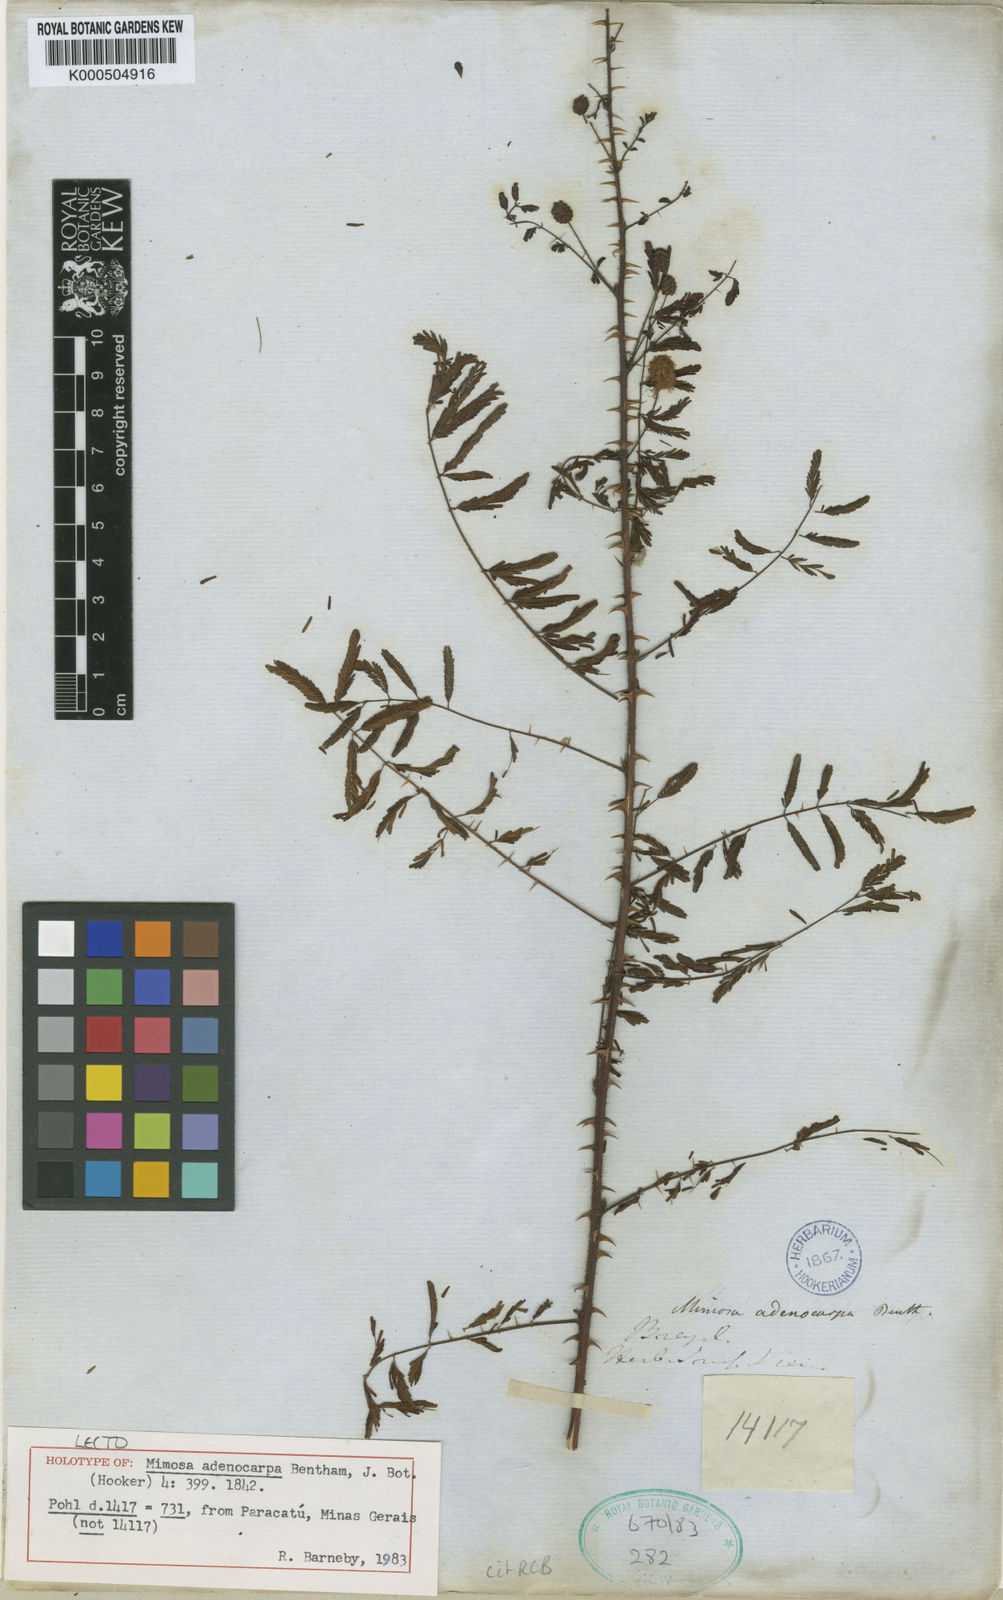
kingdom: Plantae
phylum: Tracheophyta
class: Magnoliopsida
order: Fabales
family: Fabaceae
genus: Mimosa
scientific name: Mimosa adenocarpa
